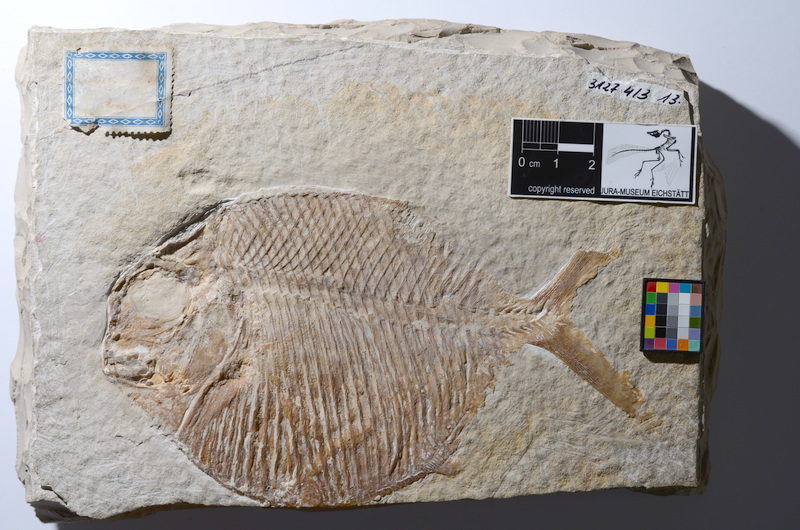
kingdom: Animalia
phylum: Chordata
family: Gyrodontidae
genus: Gyrodus
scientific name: Gyrodus hexagonus
